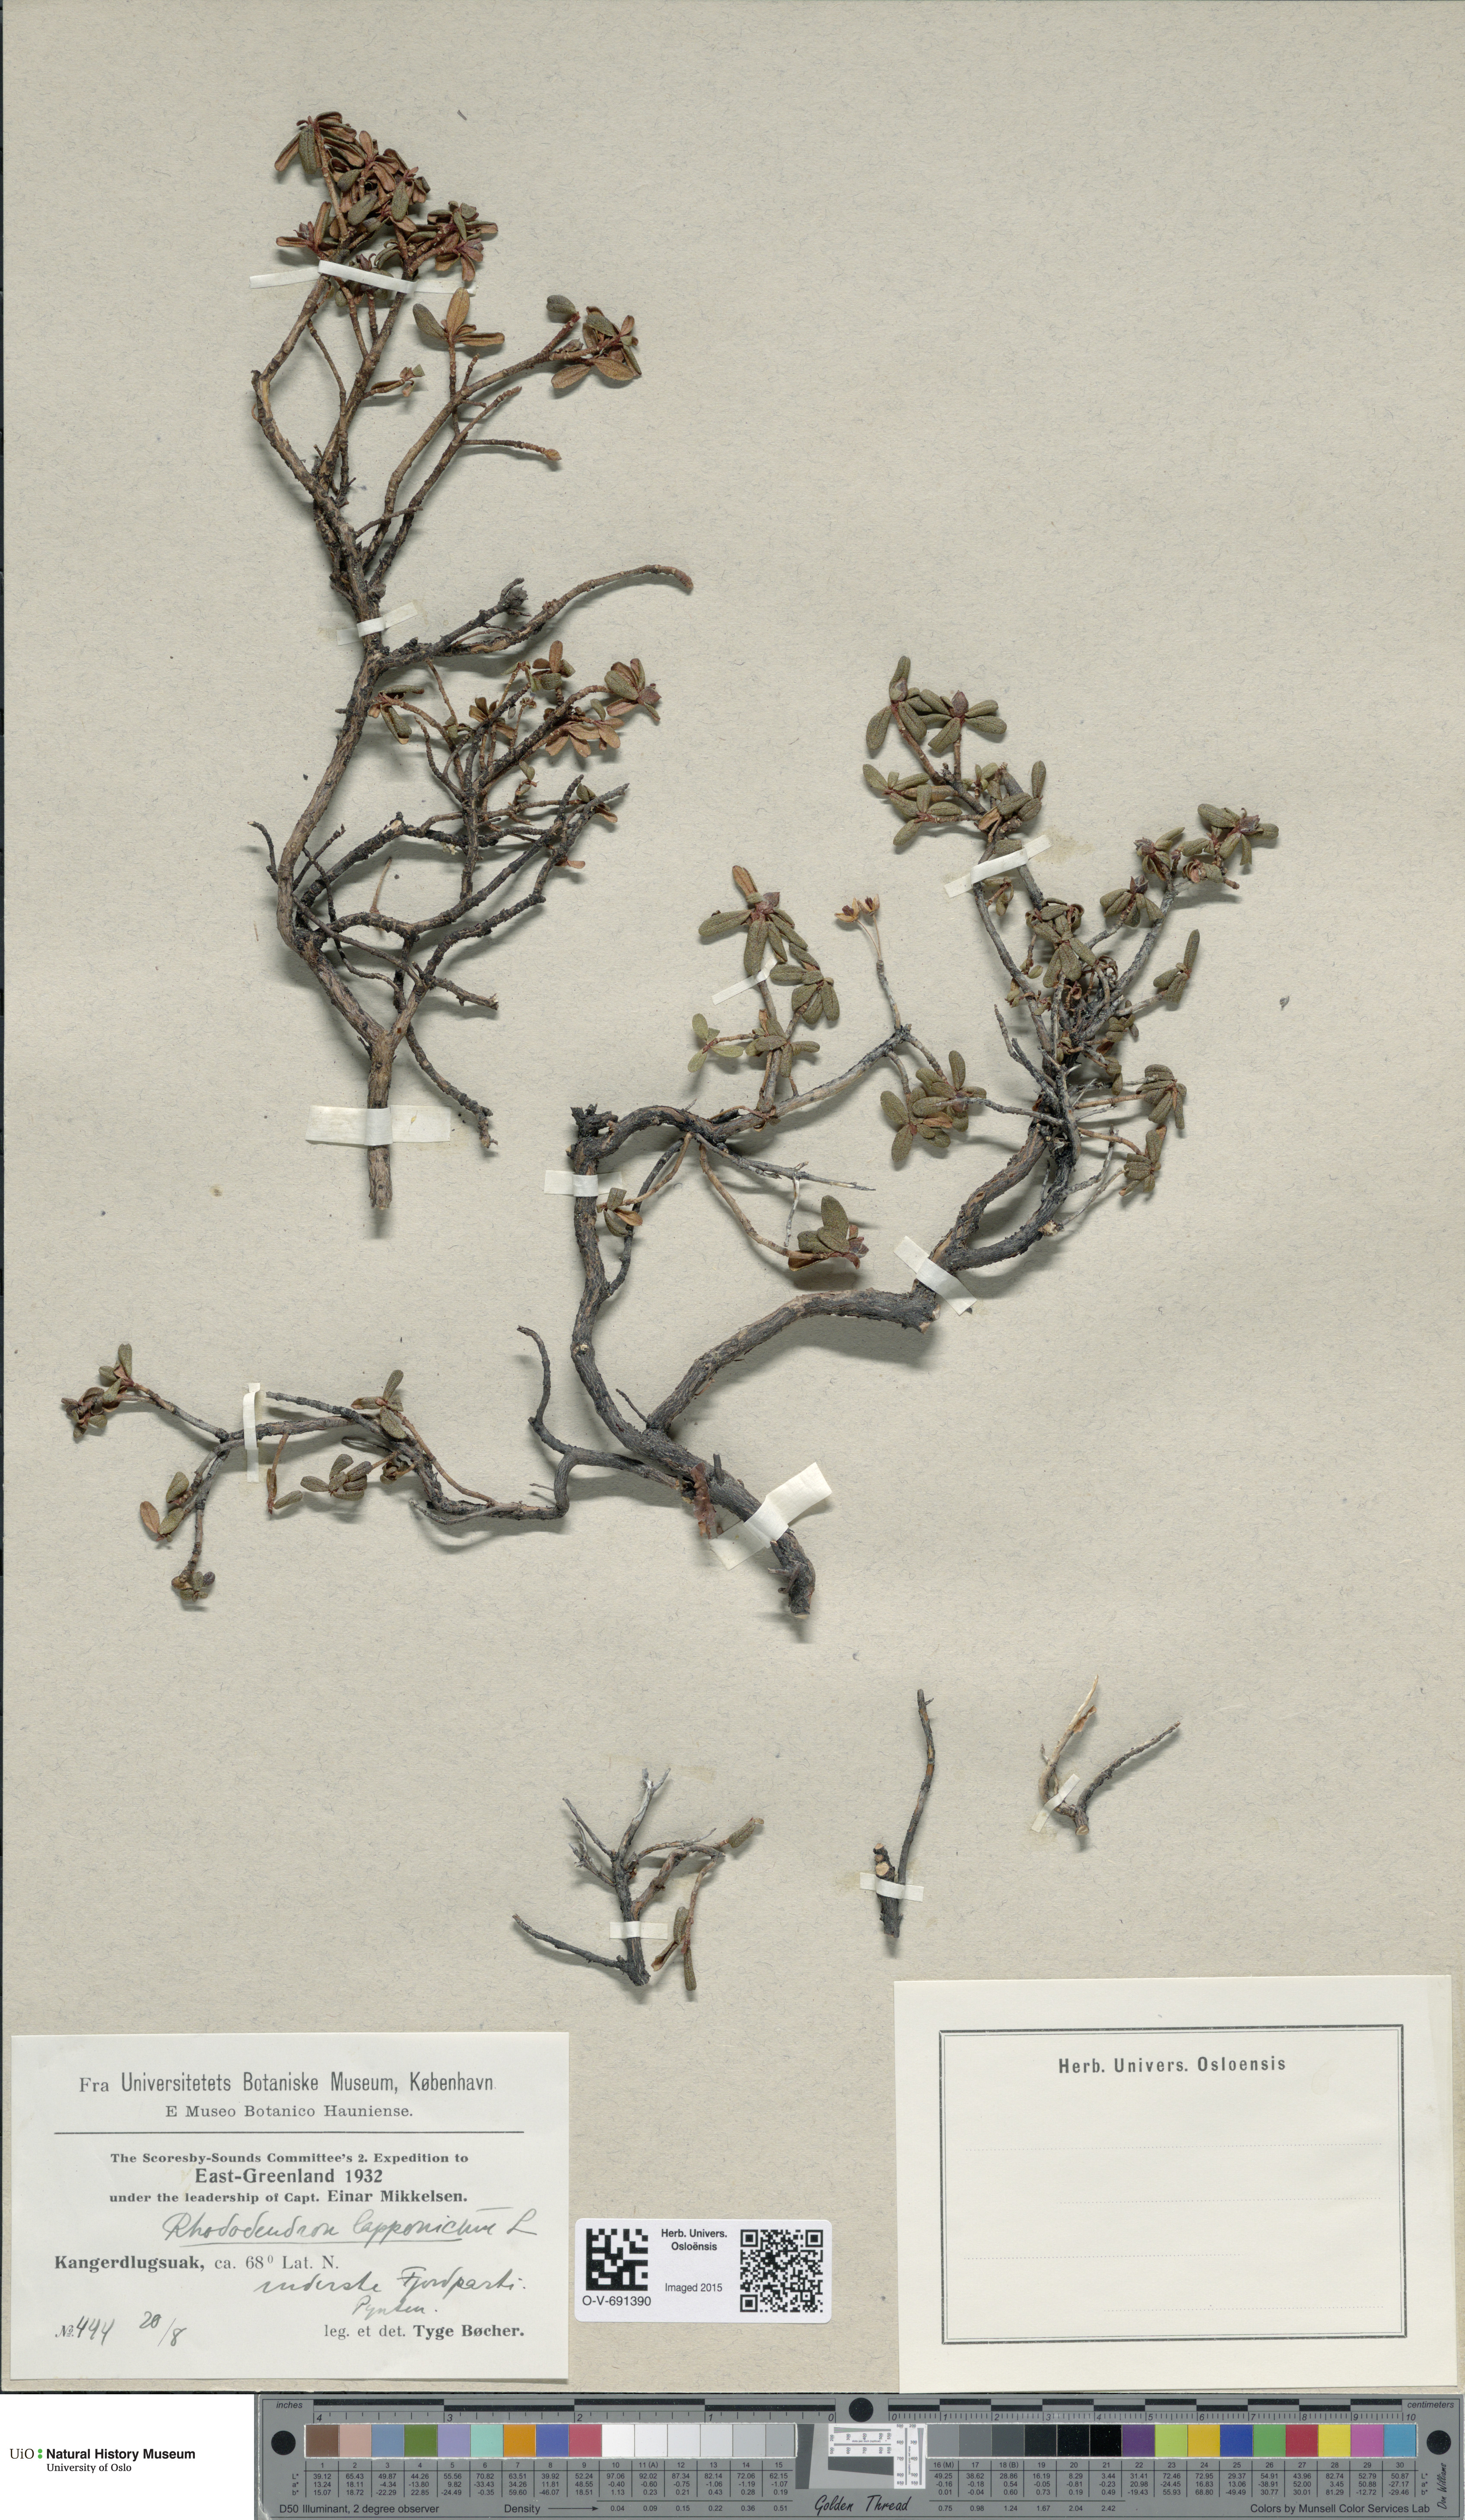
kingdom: Plantae
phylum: Tracheophyta
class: Magnoliopsida
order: Ericales
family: Ericaceae
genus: Rhododendron
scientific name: Rhododendron lapponicum
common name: Lapland rhododendron
